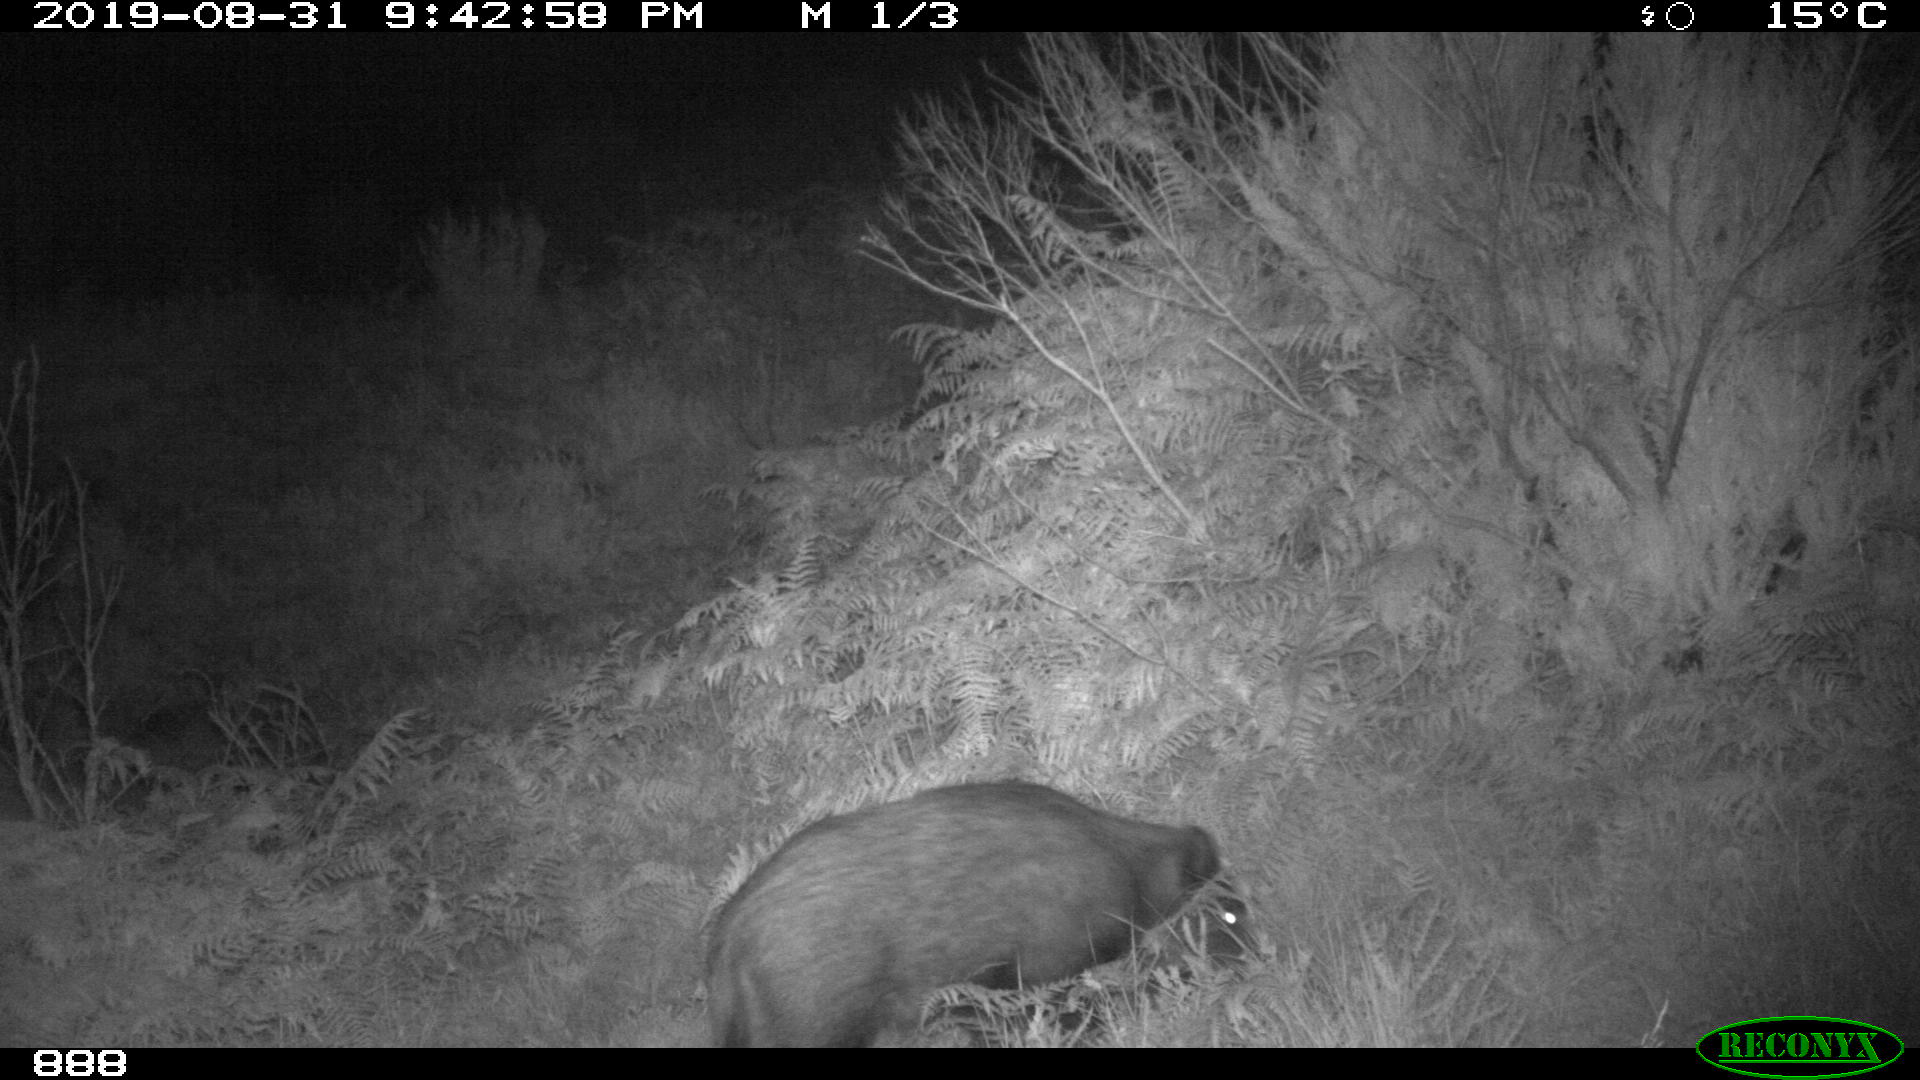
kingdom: Animalia
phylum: Chordata
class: Mammalia
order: Artiodactyla
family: Suidae
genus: Sus
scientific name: Sus scrofa
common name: Wild boar
